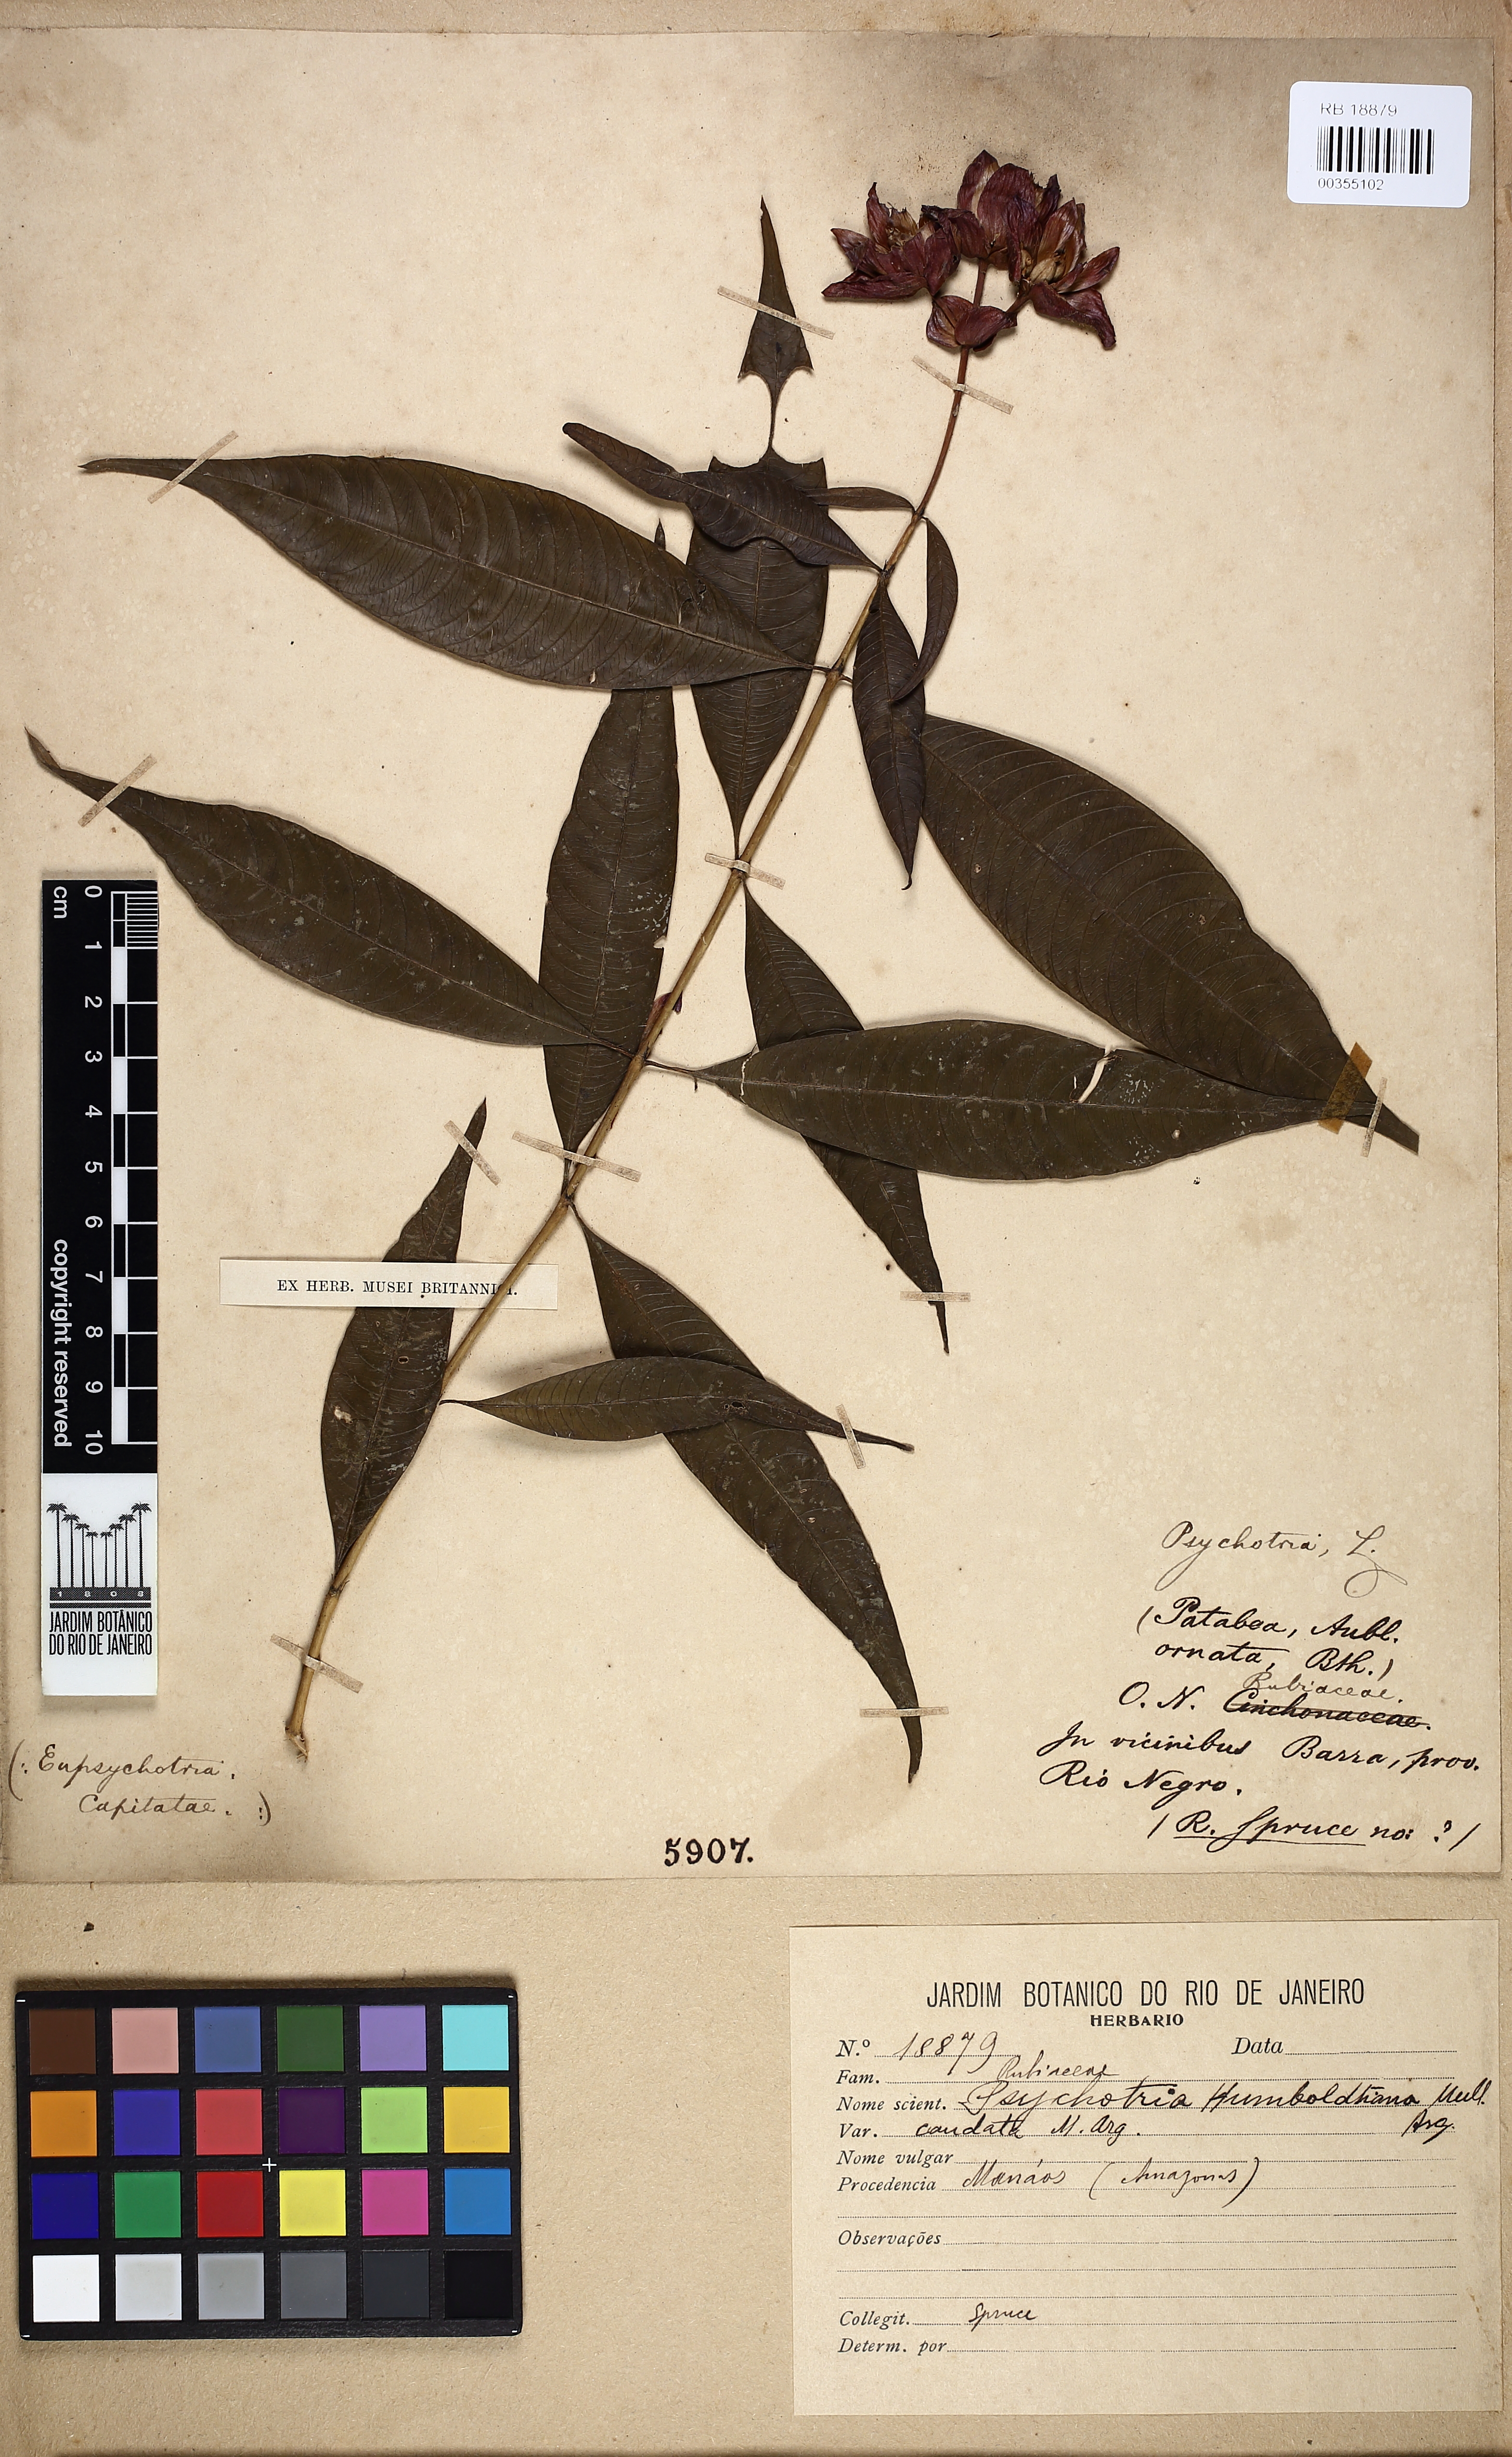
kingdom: Plantae
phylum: Tracheophyta
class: Magnoliopsida
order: Gentianales
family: Rubiaceae
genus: Palicourea
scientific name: Palicourea humboldtiana
